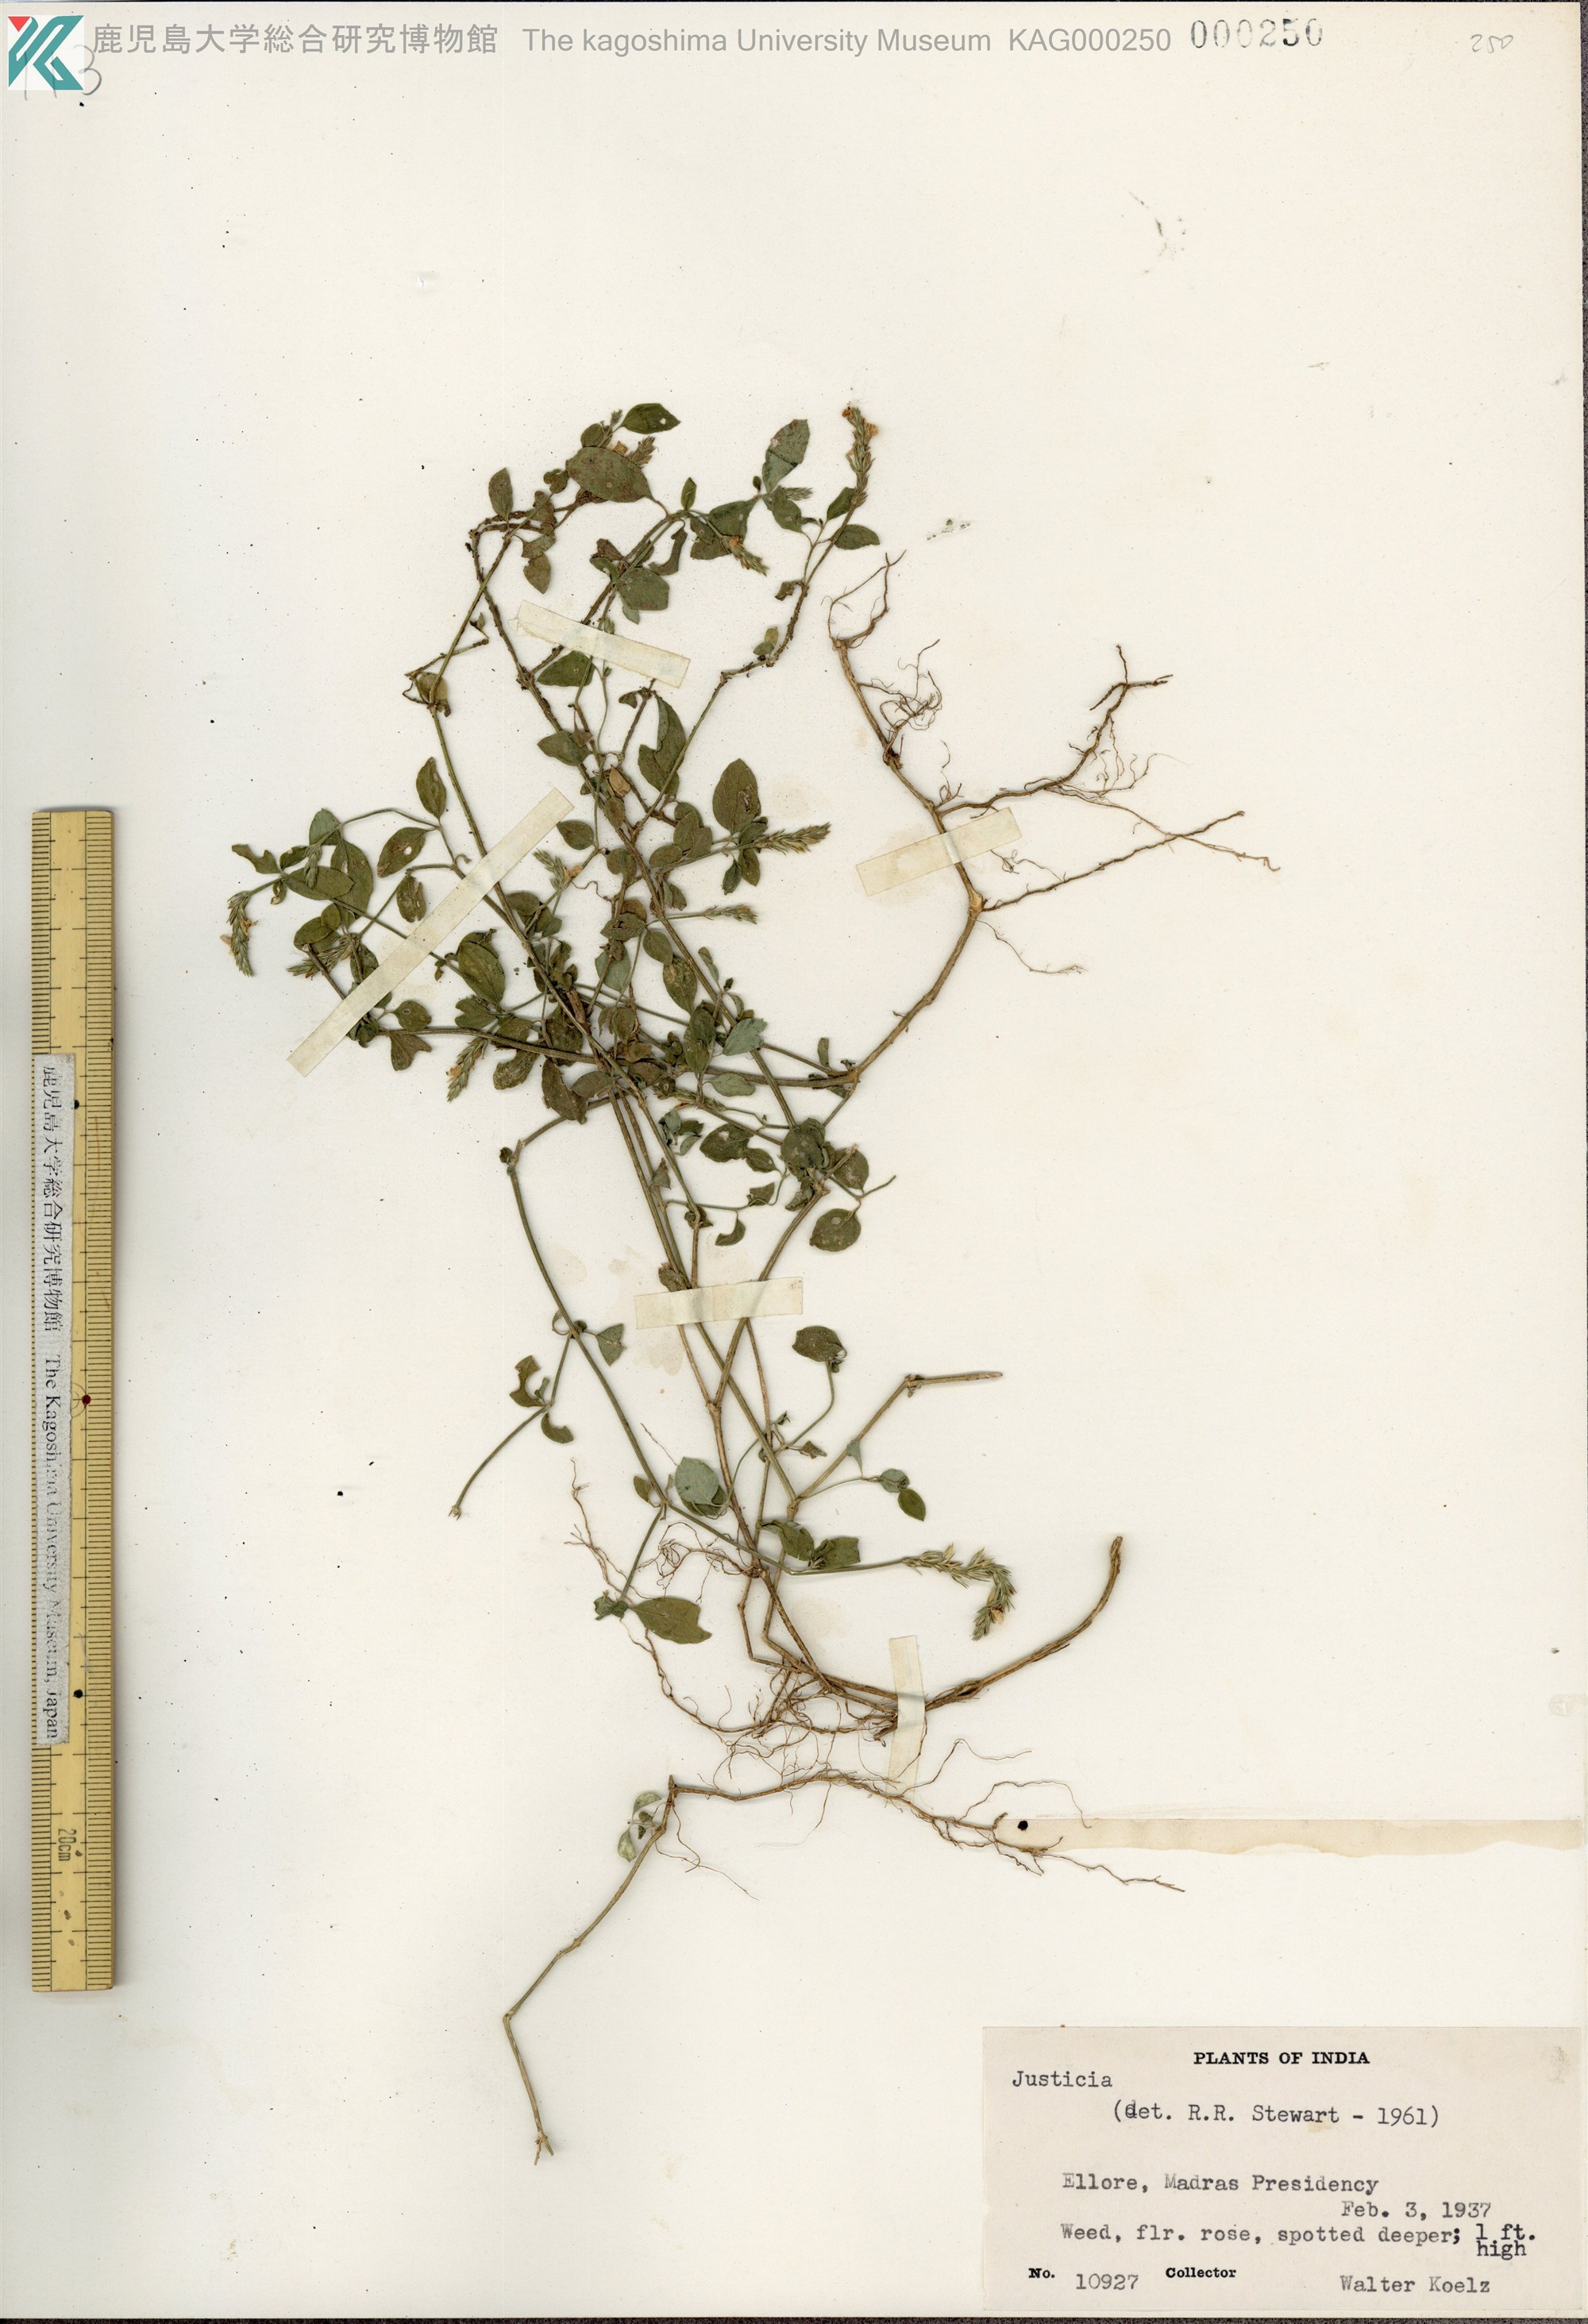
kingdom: Plantae
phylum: Tracheophyta
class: Magnoliopsida
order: Lamiales
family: Acanthaceae
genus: Justicia
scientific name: Justicia
